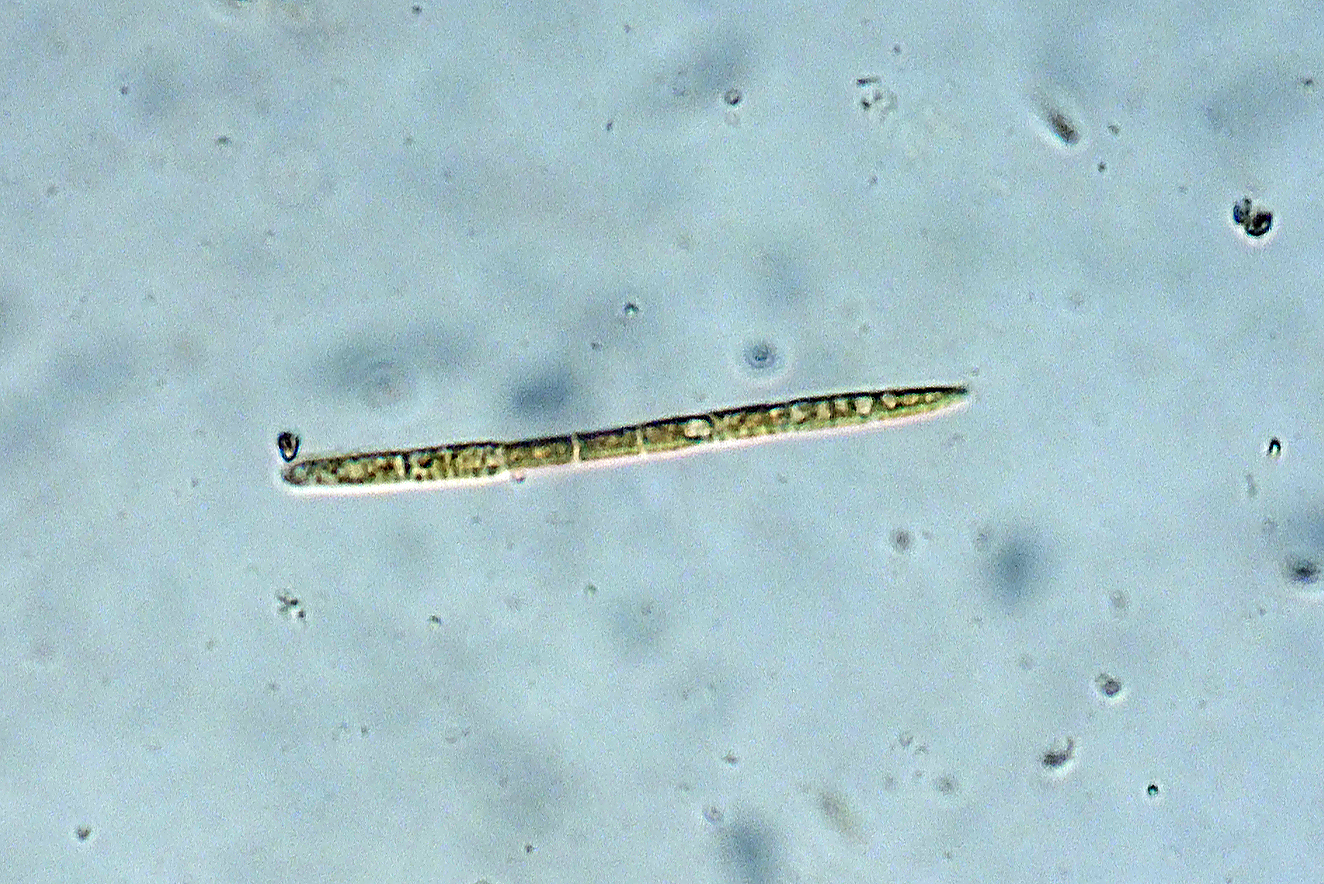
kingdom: Fungi
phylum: Ascomycota
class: Leotiomycetes
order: Helotiales
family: Godroniaceae
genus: Godronia
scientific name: Godronia empetri
